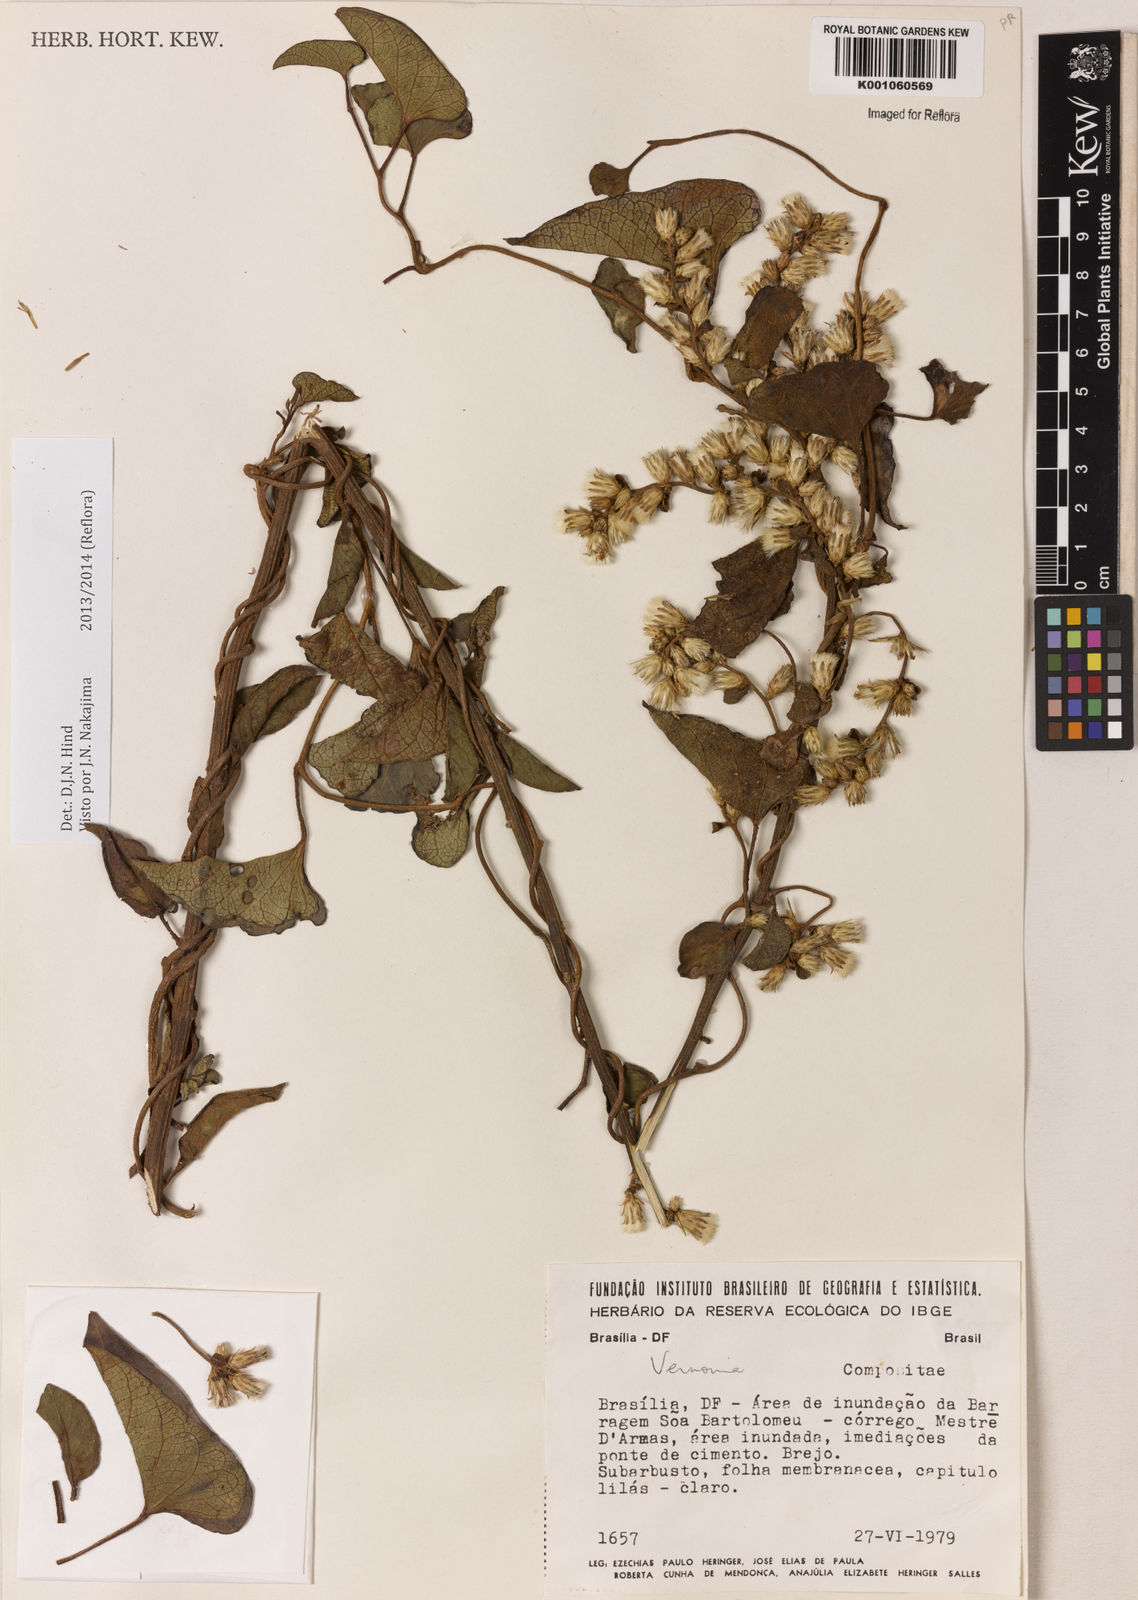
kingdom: Plantae
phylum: Tracheophyta
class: Magnoliopsida
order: Asterales
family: Asteraceae
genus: Acilepidopsis
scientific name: Acilepidopsis echitifolia
